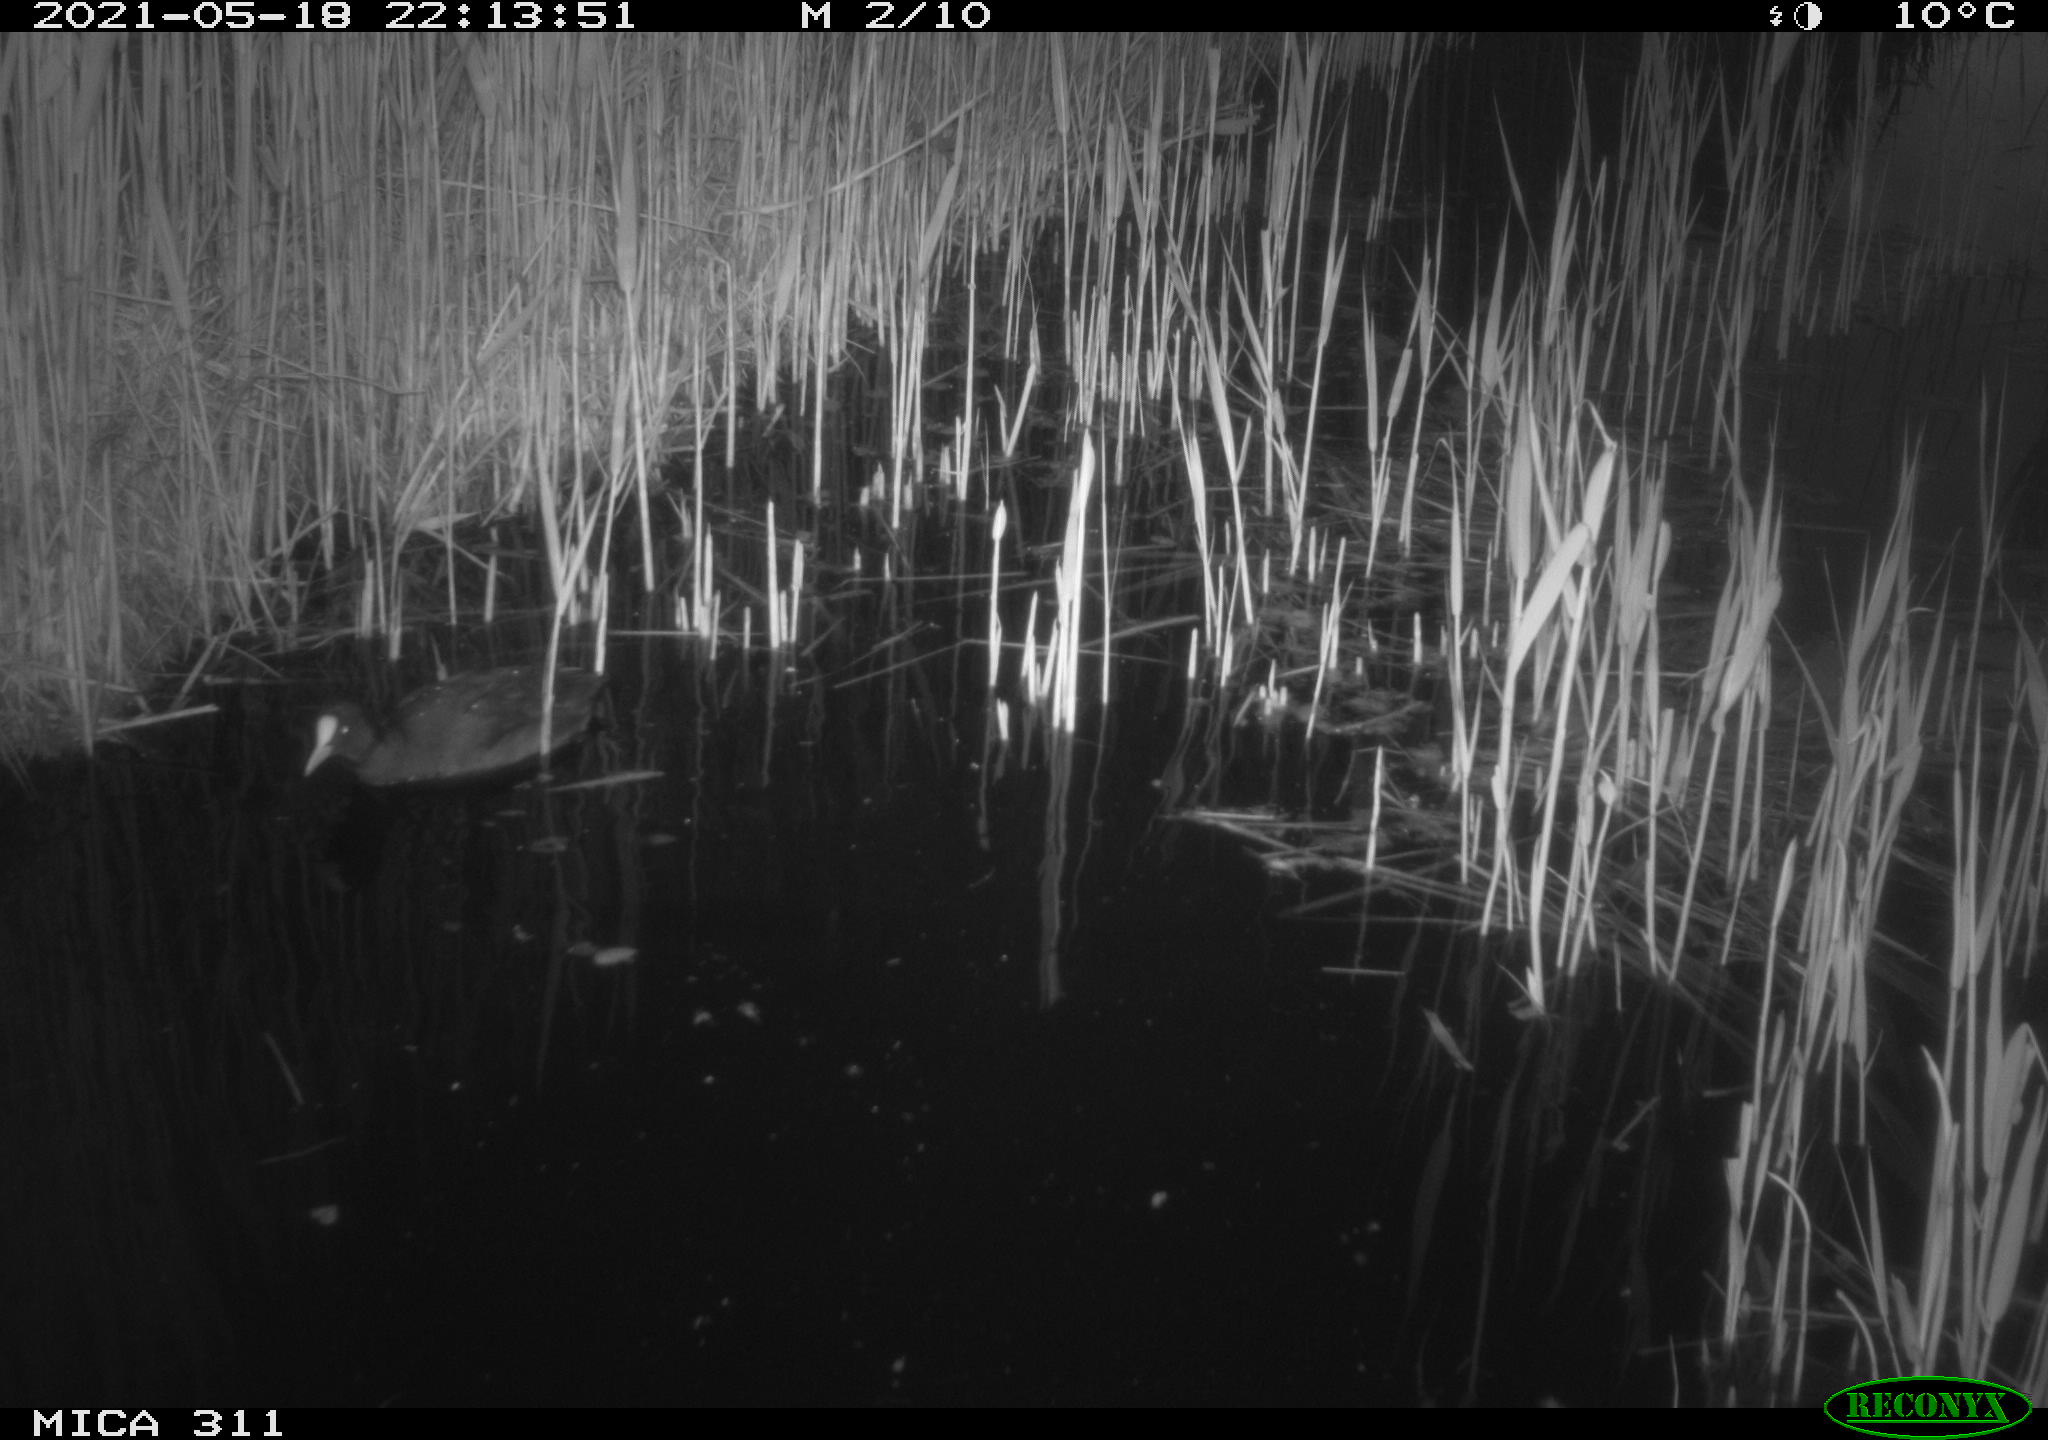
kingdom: Animalia
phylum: Chordata
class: Aves
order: Gruiformes
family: Rallidae
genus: Fulica
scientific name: Fulica atra
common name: Eurasian coot
